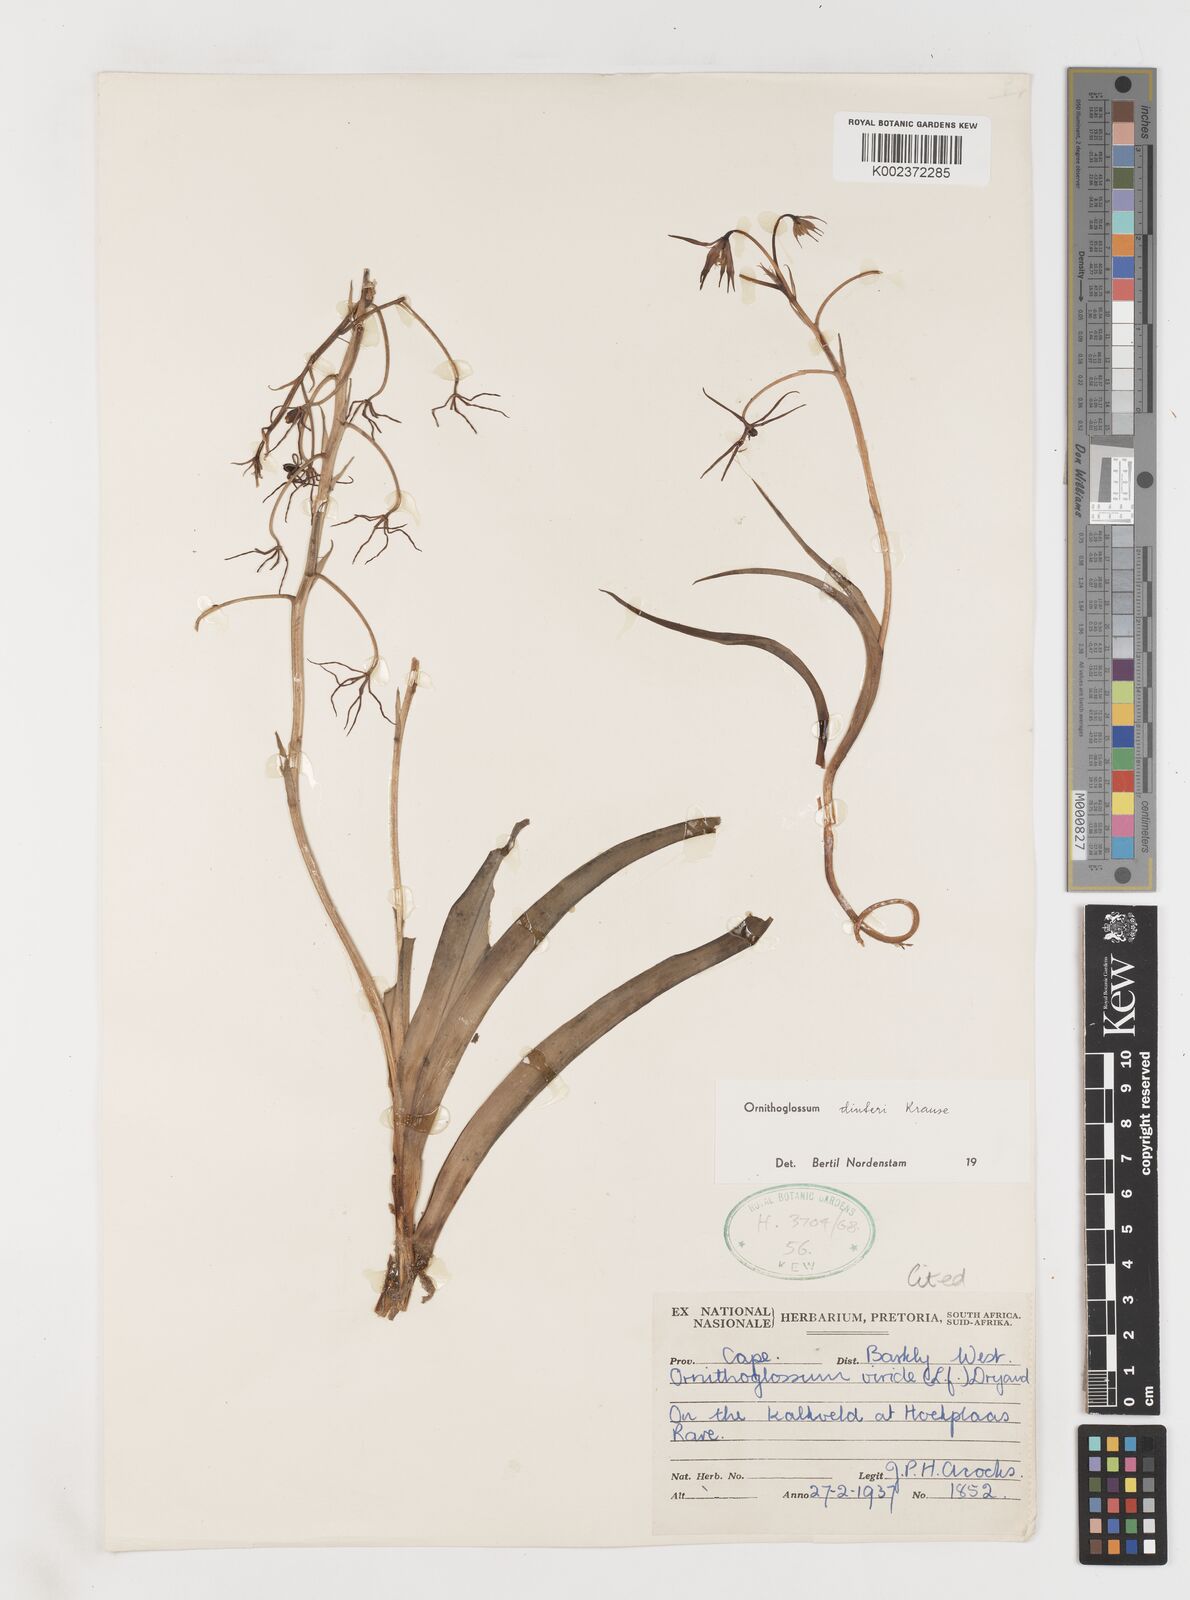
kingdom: Plantae
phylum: Tracheophyta
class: Liliopsida
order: Liliales
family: Colchicaceae
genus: Ornithoglossum
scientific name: Ornithoglossum dinteri
